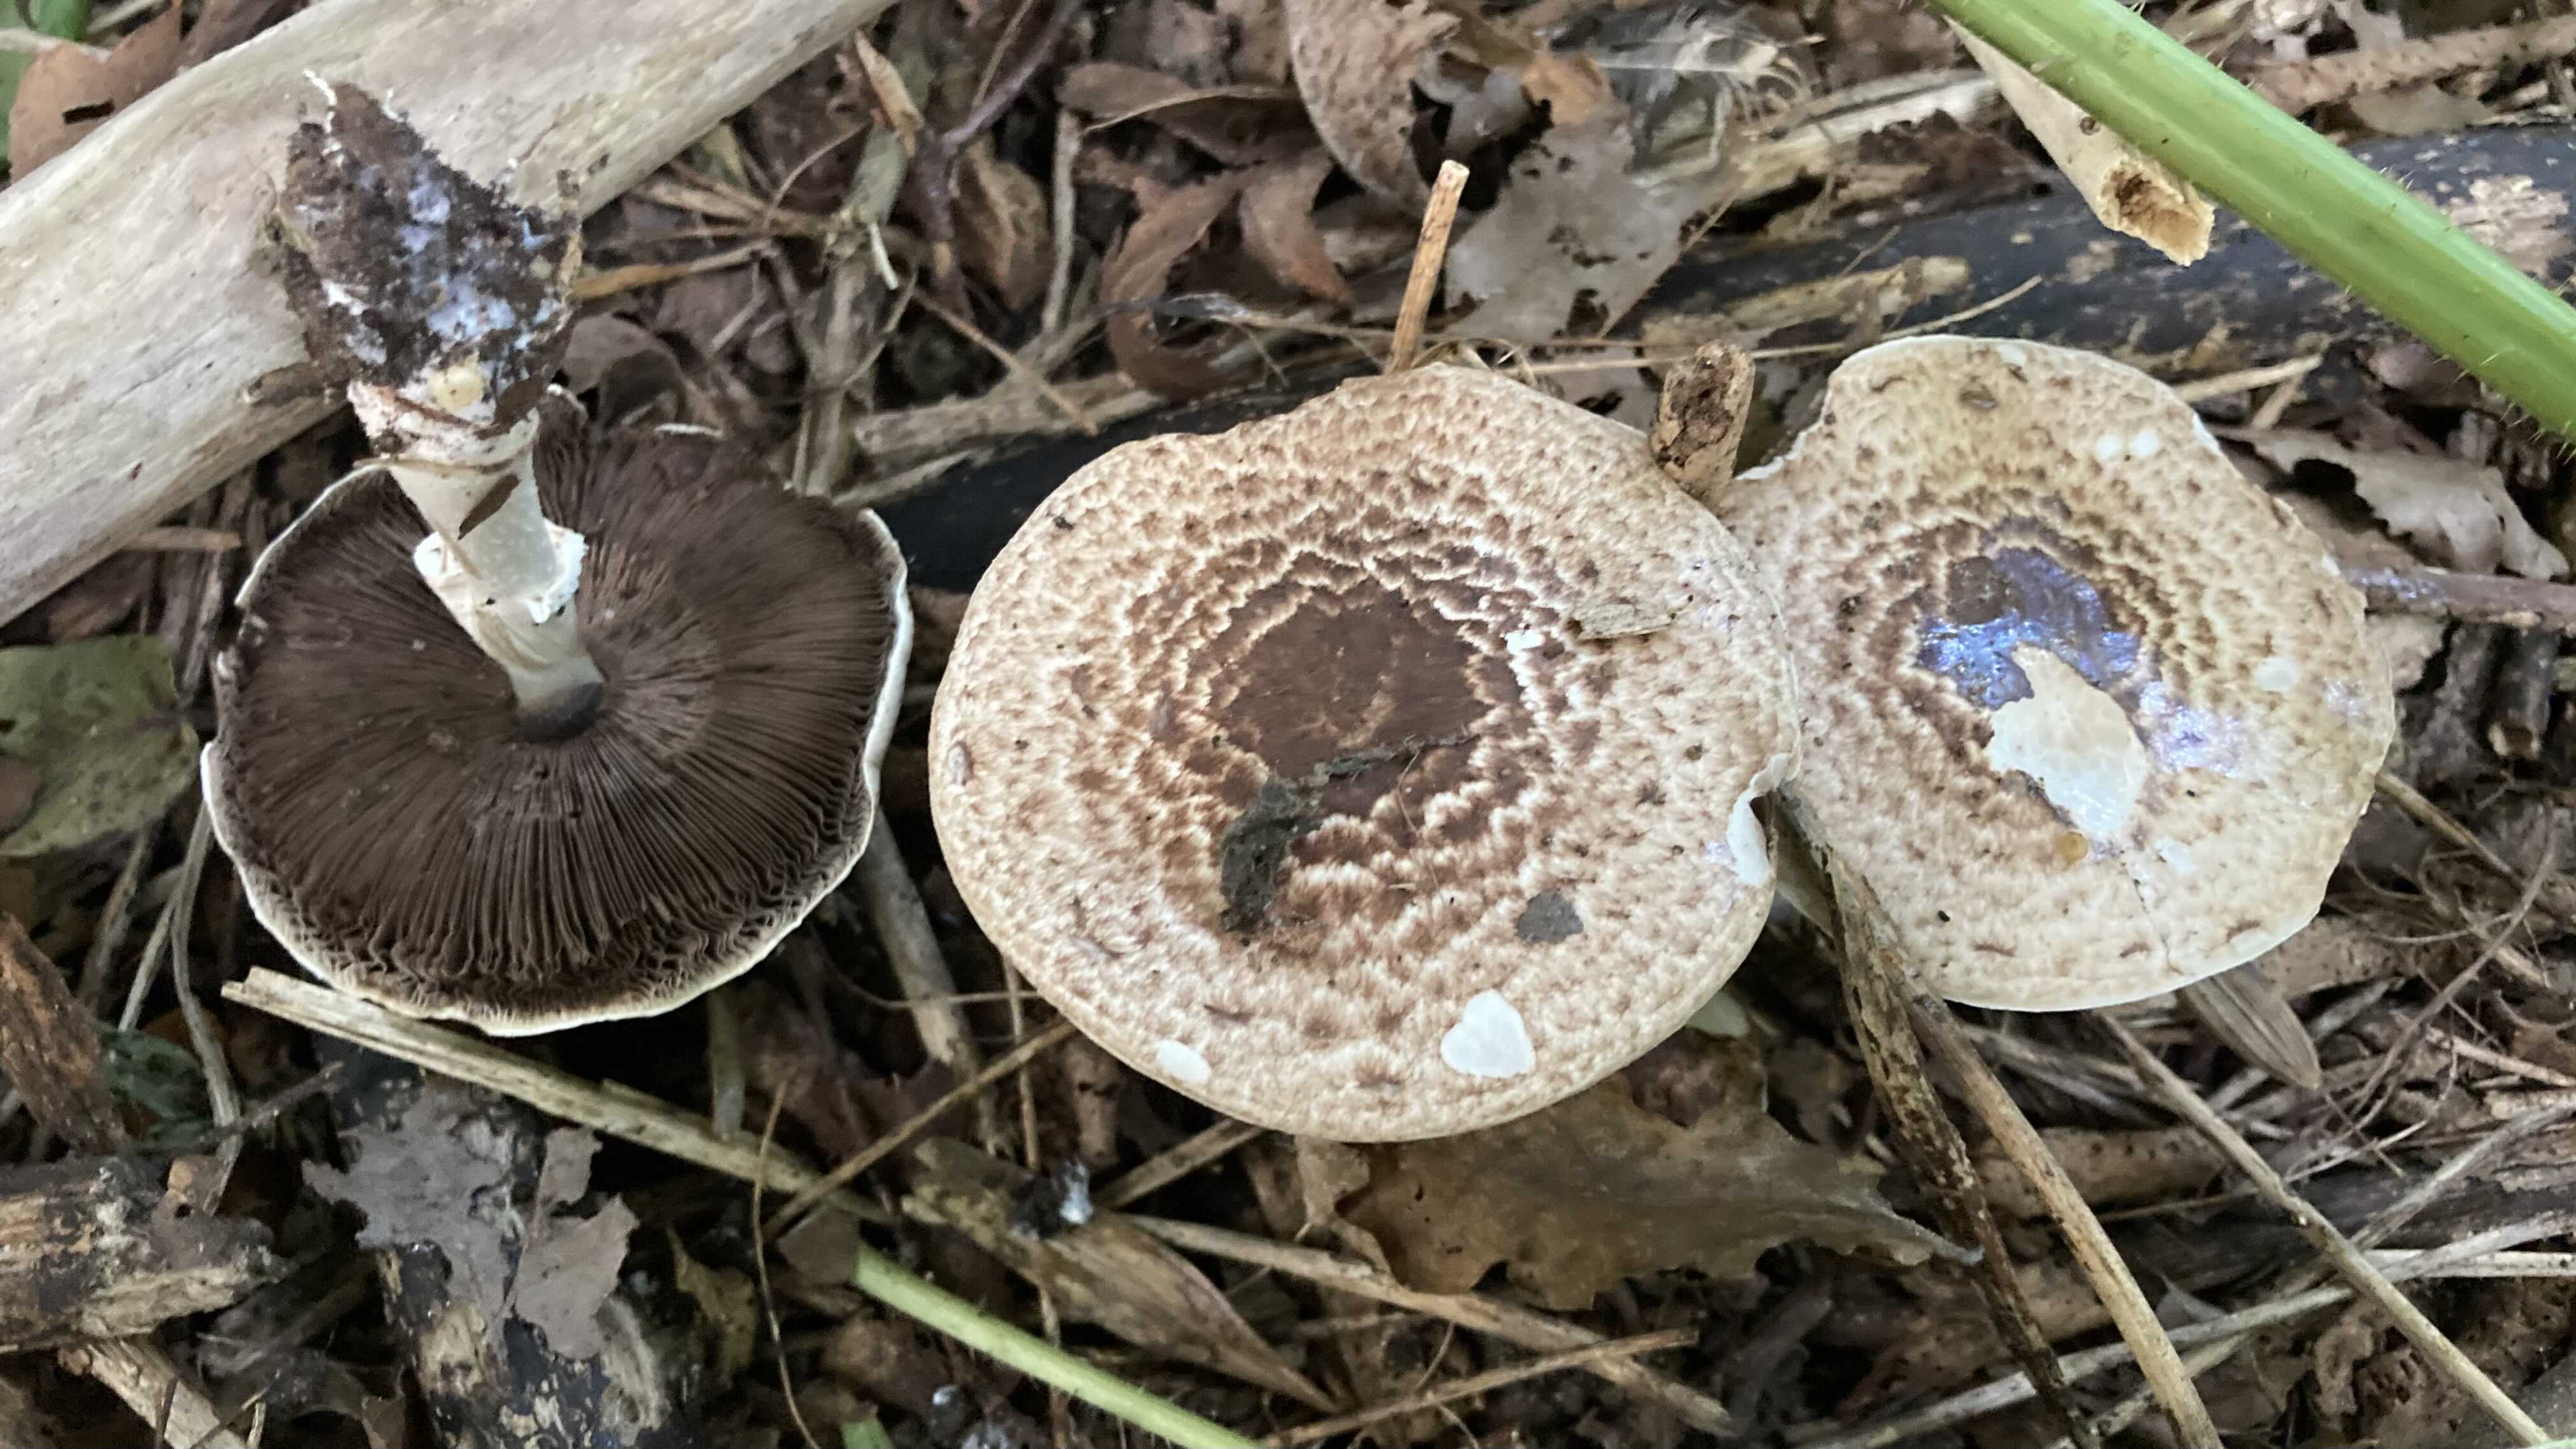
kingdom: Fungi
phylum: Basidiomycota
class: Agaricomycetes
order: Agaricales
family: Agaricaceae
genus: Agaricus
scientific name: Agaricus impudicus
